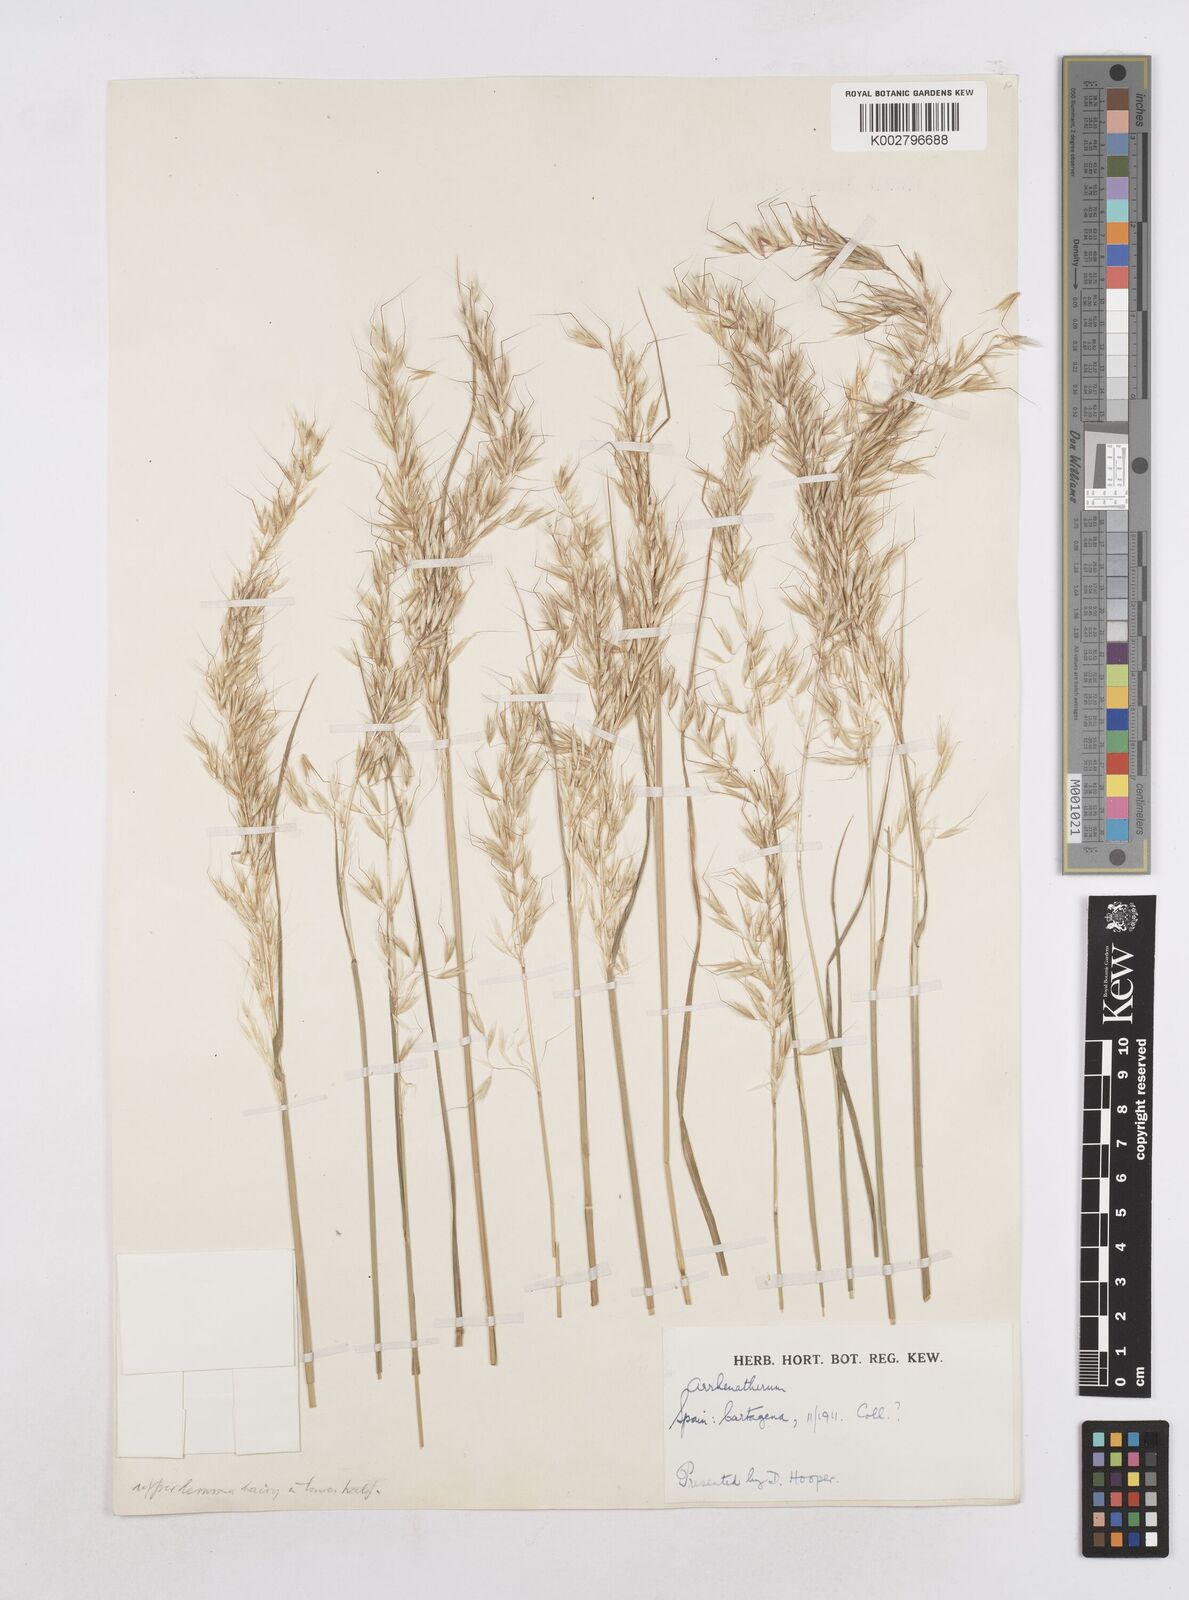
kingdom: Plantae
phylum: Tracheophyta
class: Liliopsida
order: Poales
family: Poaceae
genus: Arrhenatherum
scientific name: Arrhenatherum album
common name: Tall oat grass
